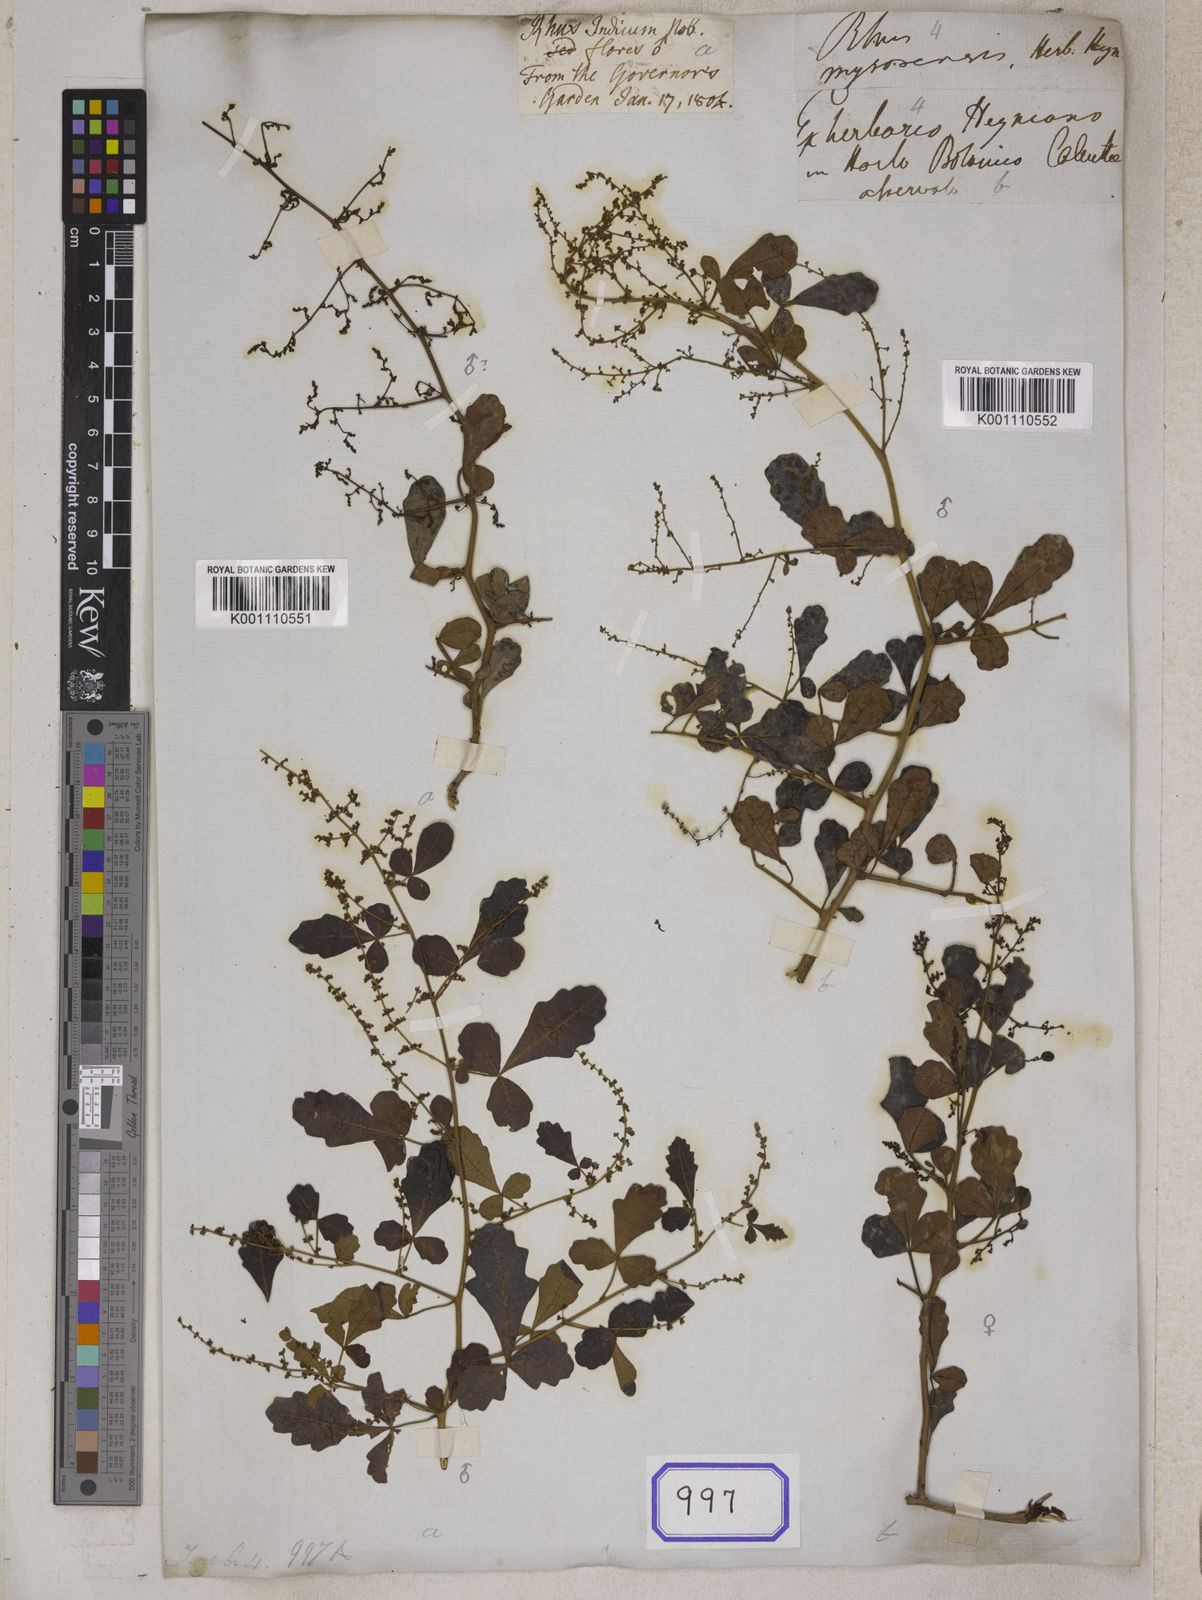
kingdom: Plantae
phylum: Tracheophyta
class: Magnoliopsida
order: Sapindales
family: Anacardiaceae
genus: Rhus
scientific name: Rhus
